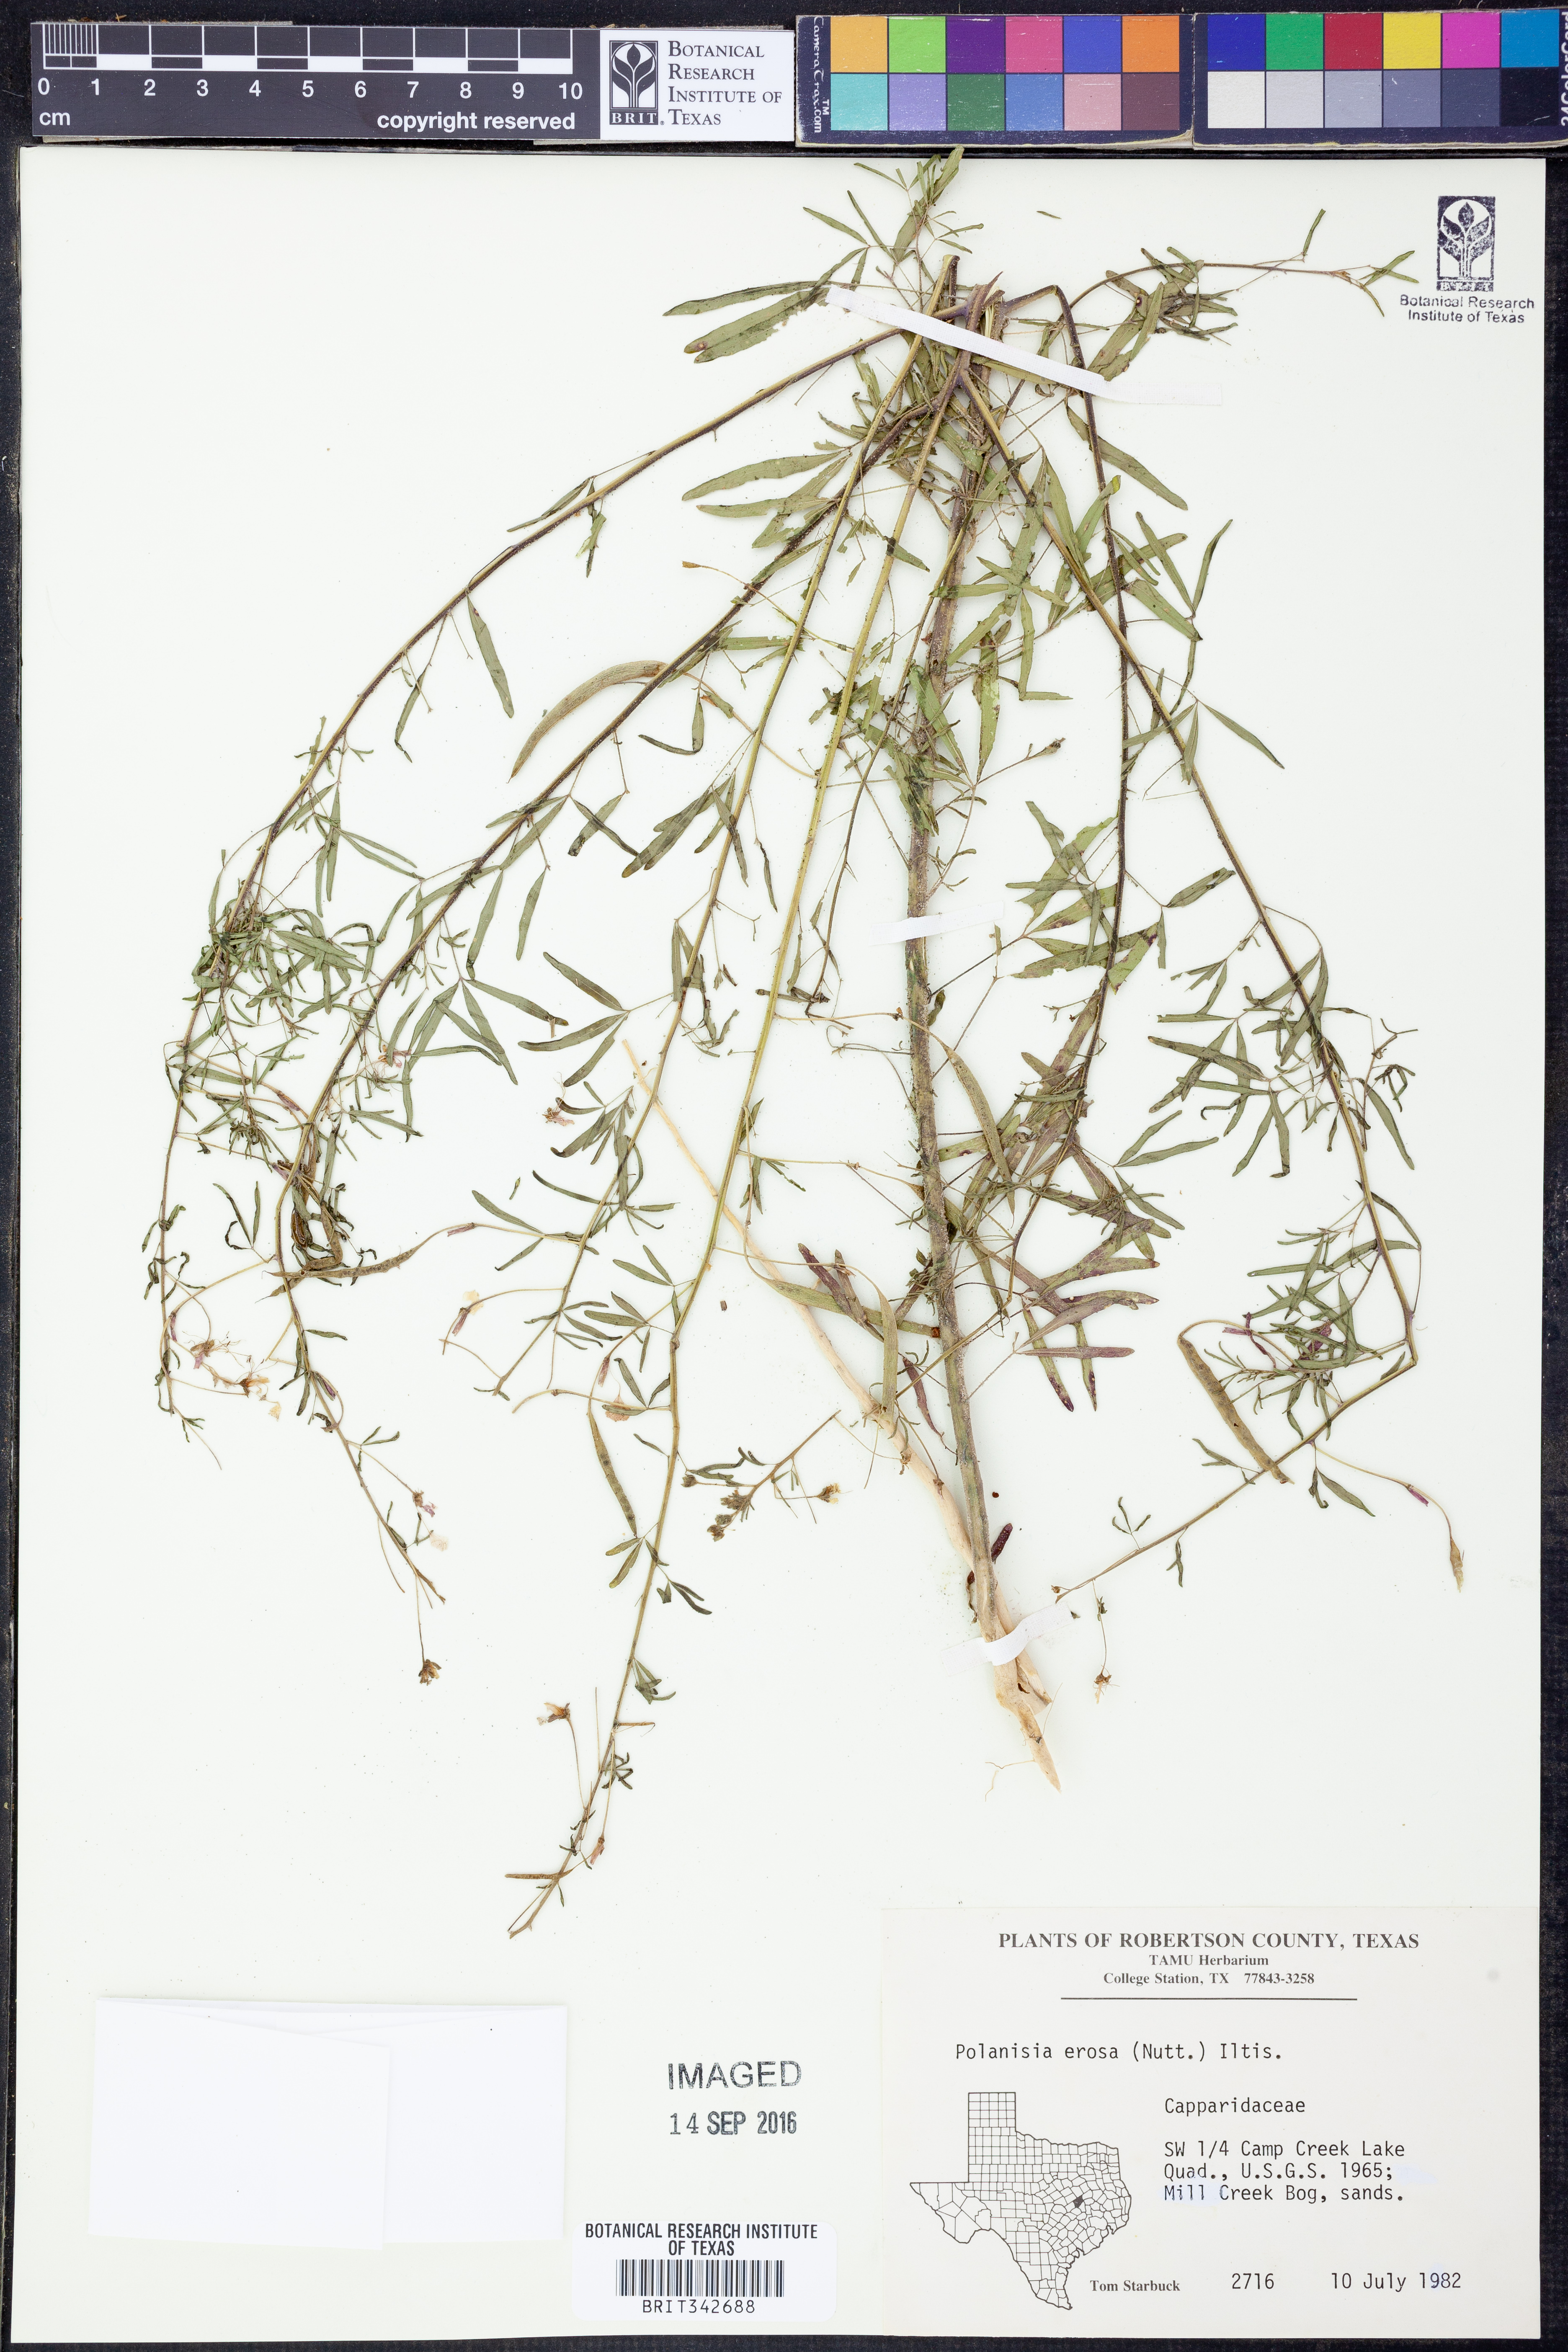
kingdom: Plantae
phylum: Tracheophyta
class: Magnoliopsida
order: Brassicales
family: Cleomaceae
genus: Polanisia
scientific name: Polanisia erosa
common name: Large clammyweed
